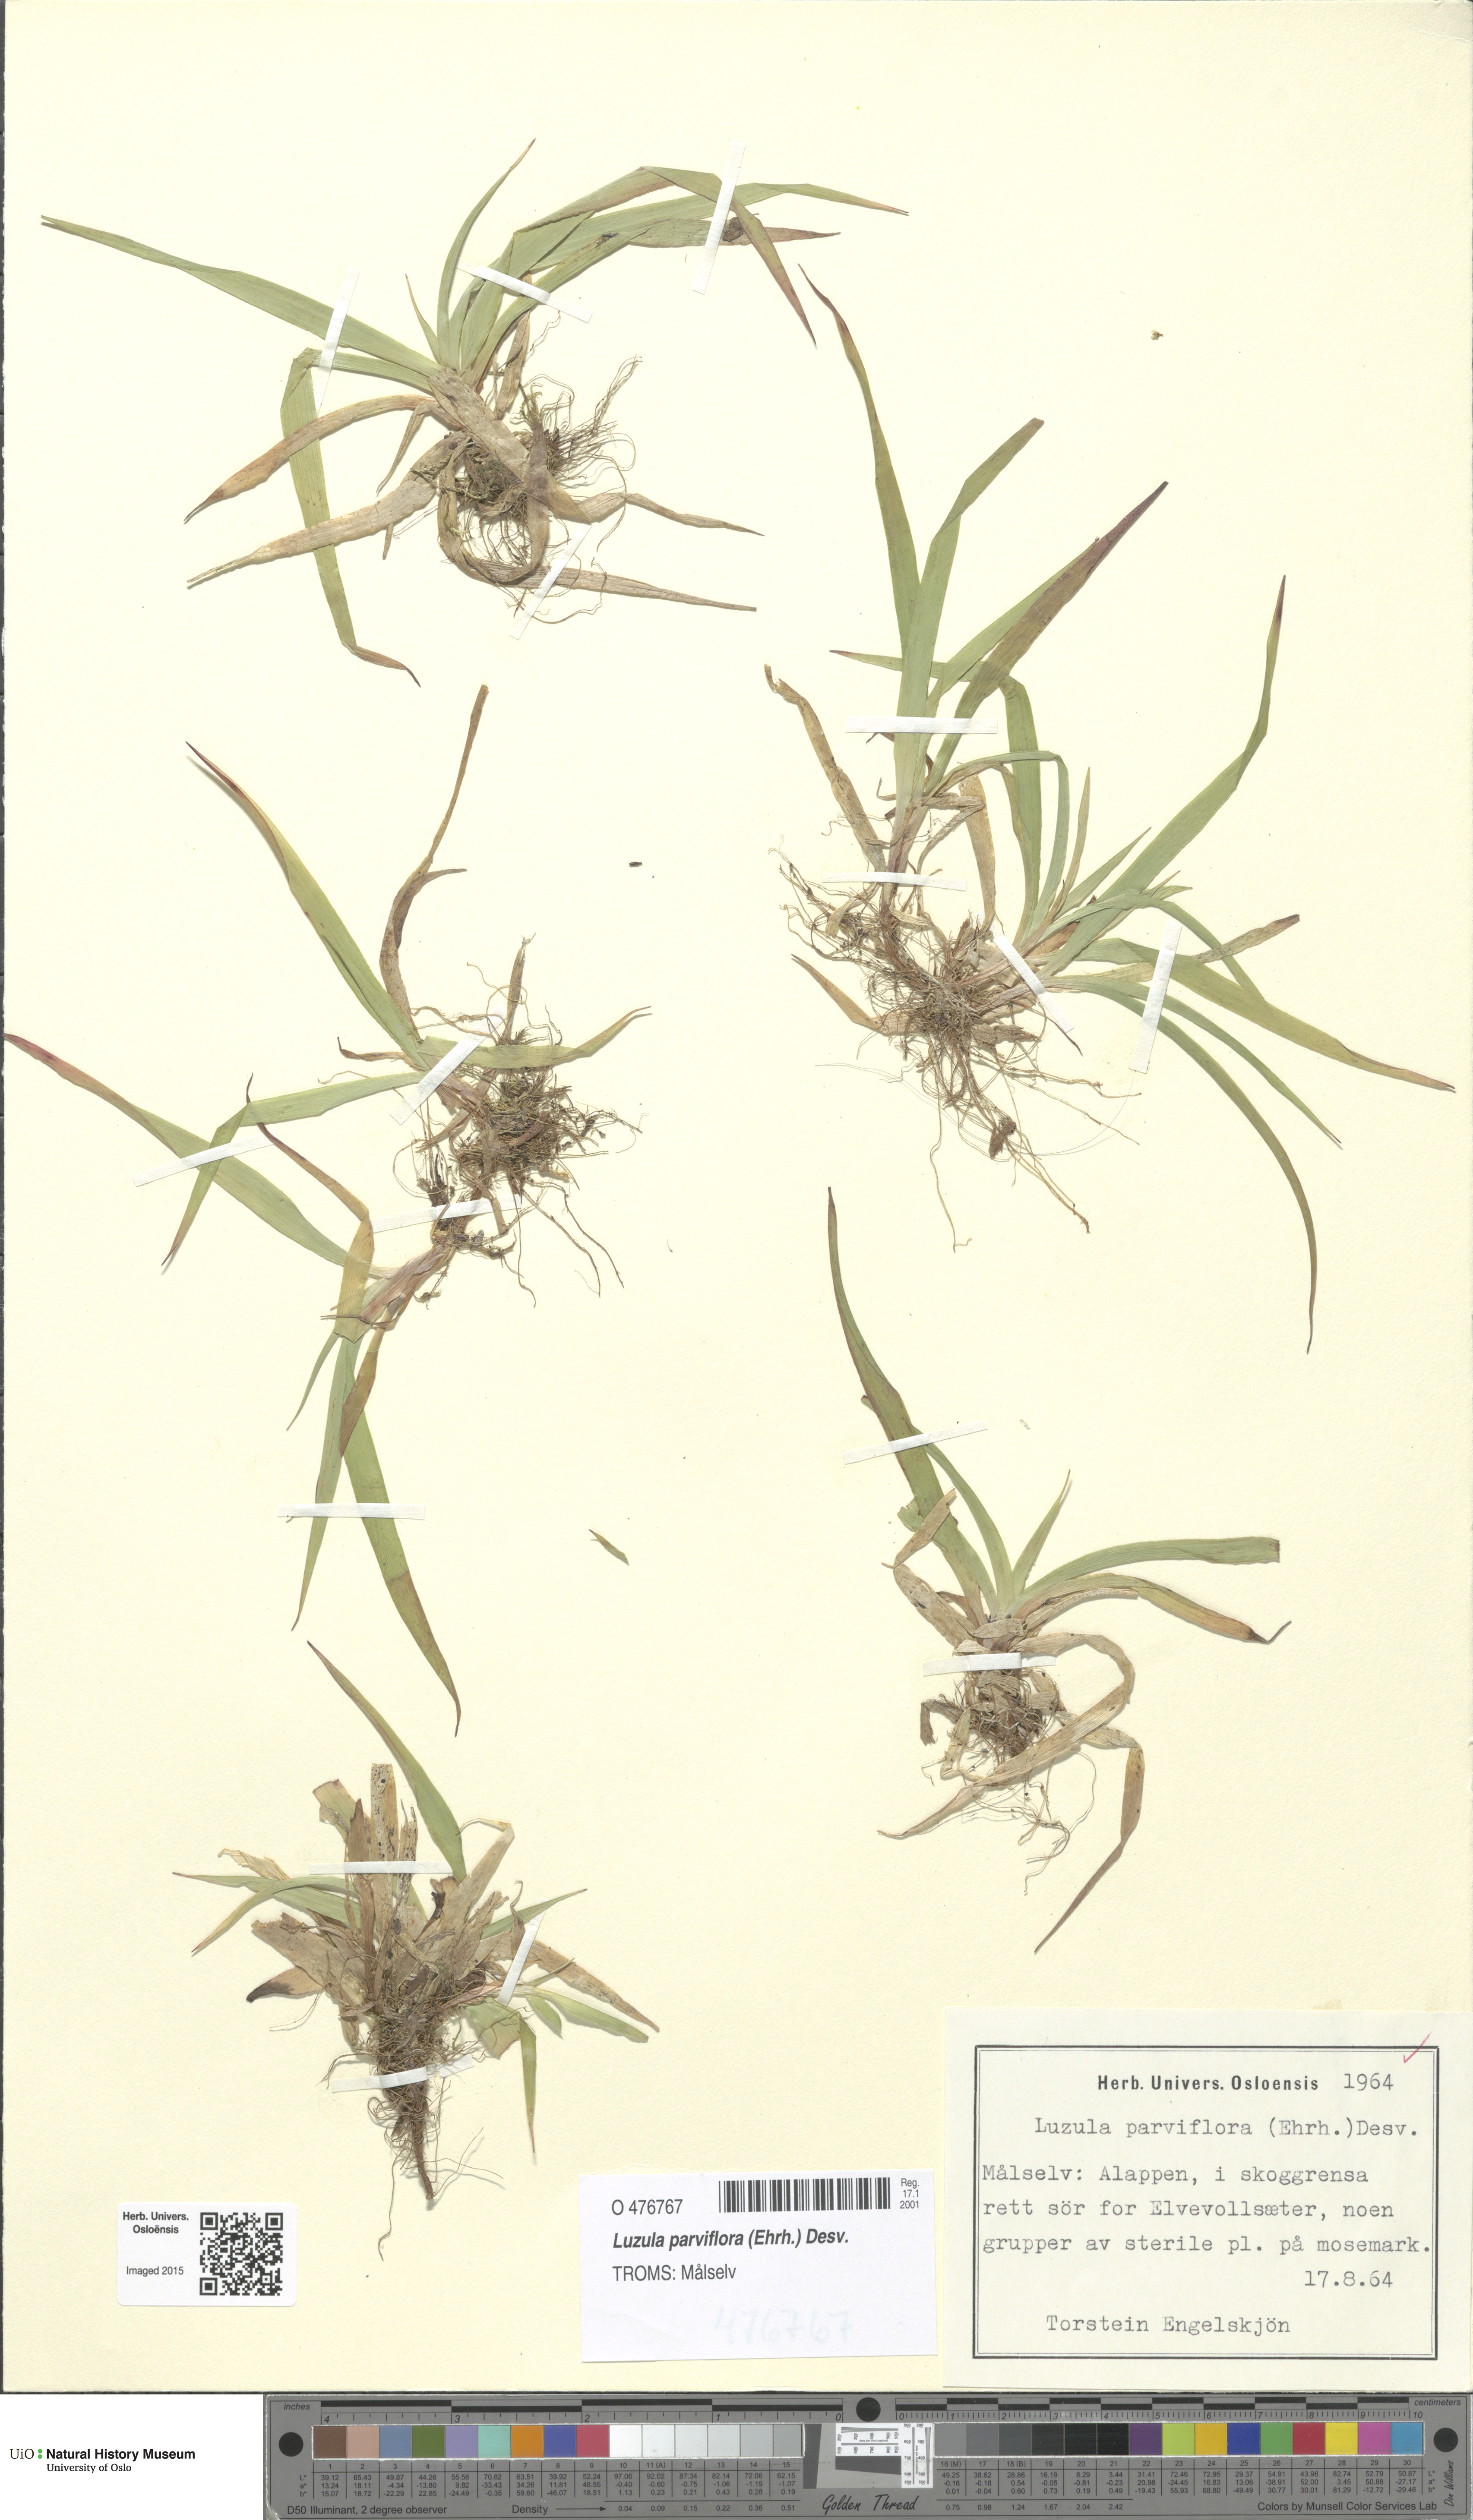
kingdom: Plantae
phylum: Tracheophyta
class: Liliopsida
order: Poales
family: Juncaceae
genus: Luzula
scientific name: Luzula parviflora
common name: Millet woodrush
